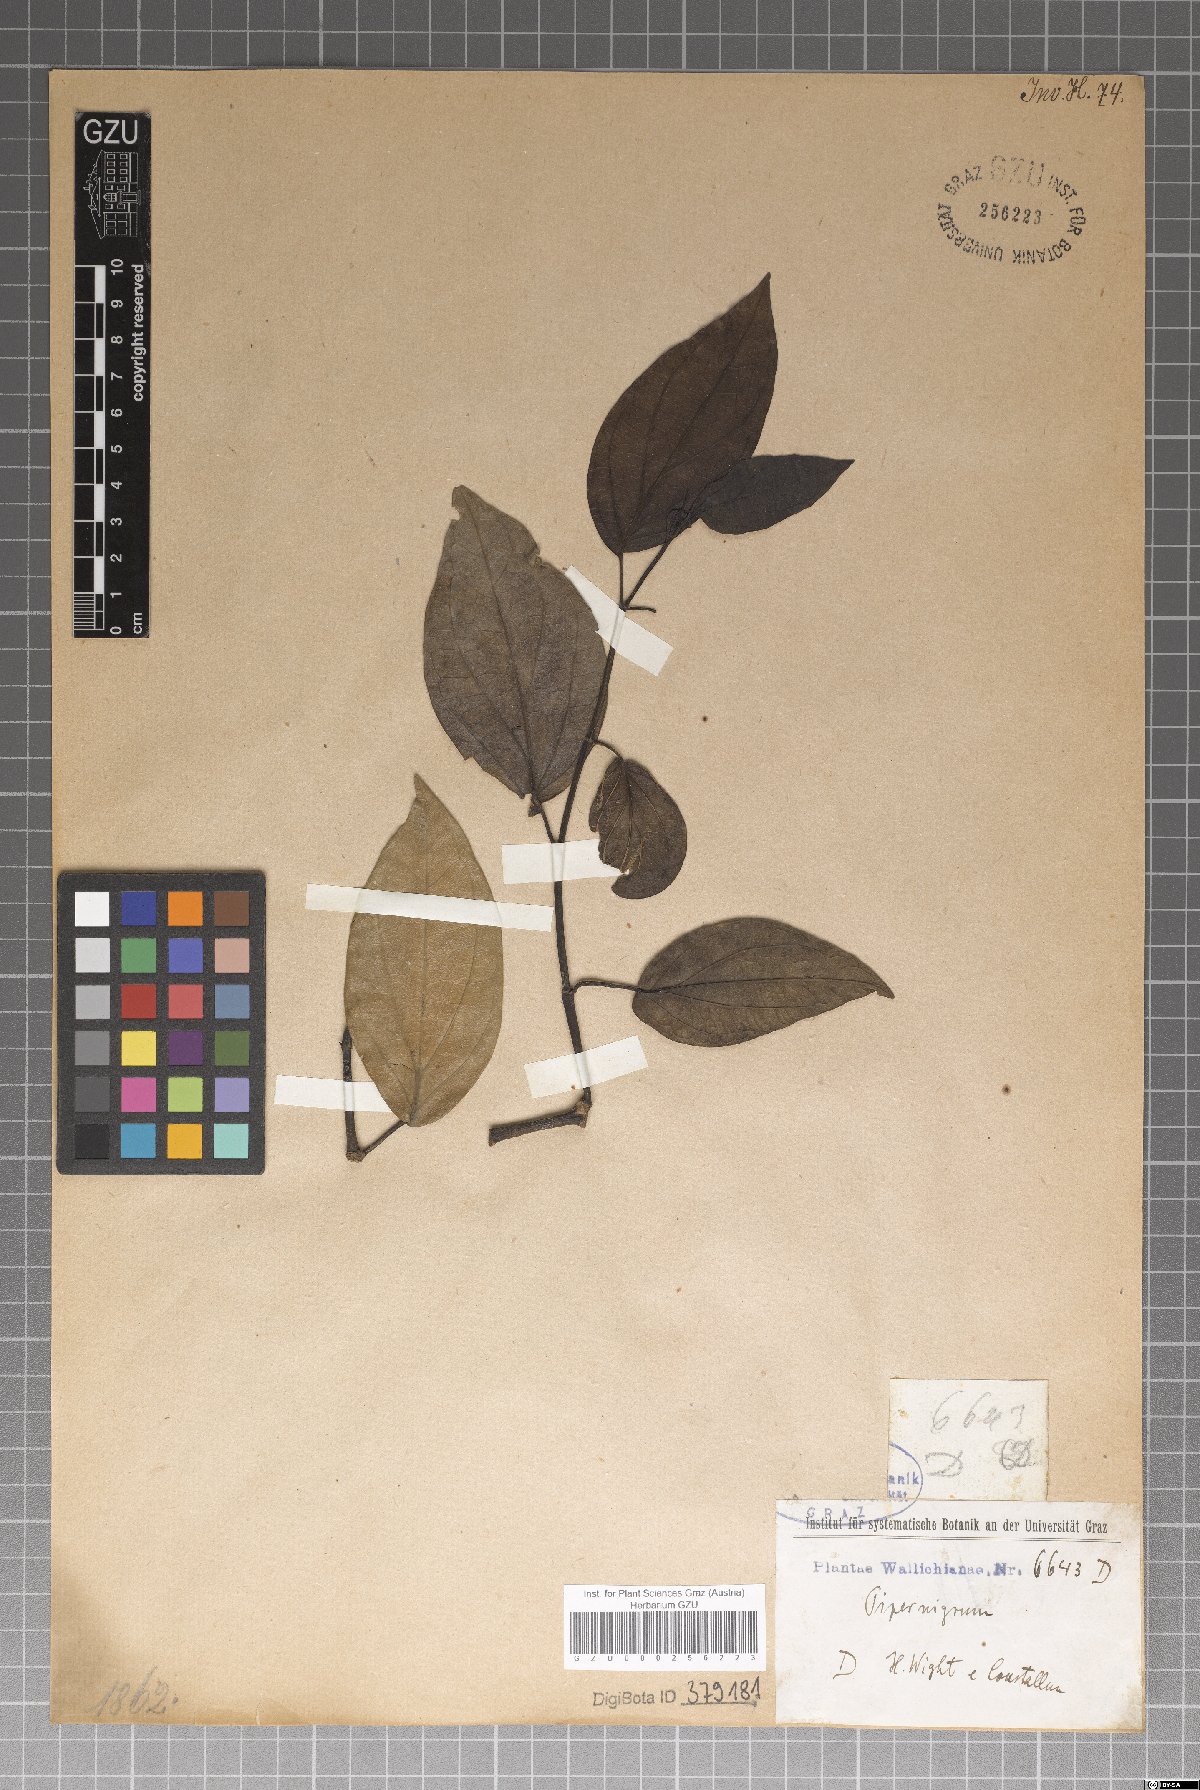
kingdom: Plantae
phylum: Tracheophyta
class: Magnoliopsida
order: Piperales
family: Piperaceae
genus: Piper
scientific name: Piper nigrum
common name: Black pepper
